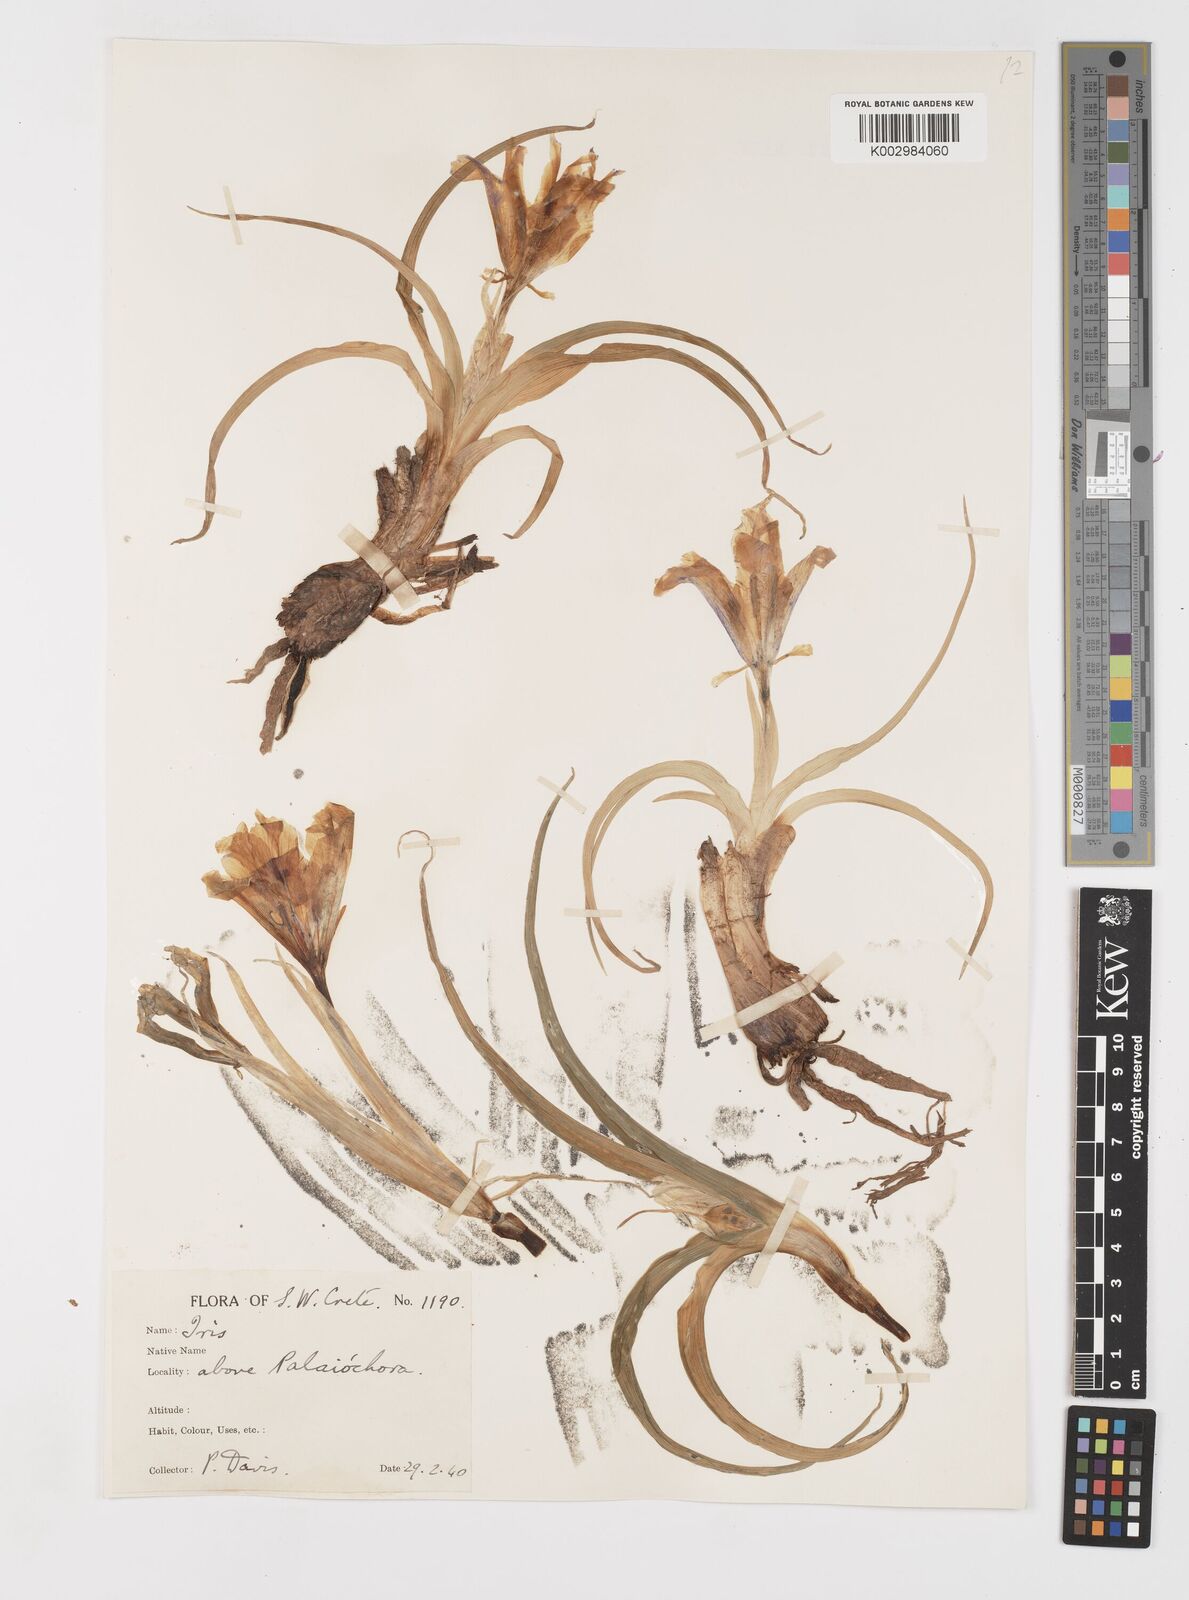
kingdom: Plantae
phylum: Tracheophyta
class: Liliopsida
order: Asparagales
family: Iridaceae
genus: Iris
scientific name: Iris planifolia
